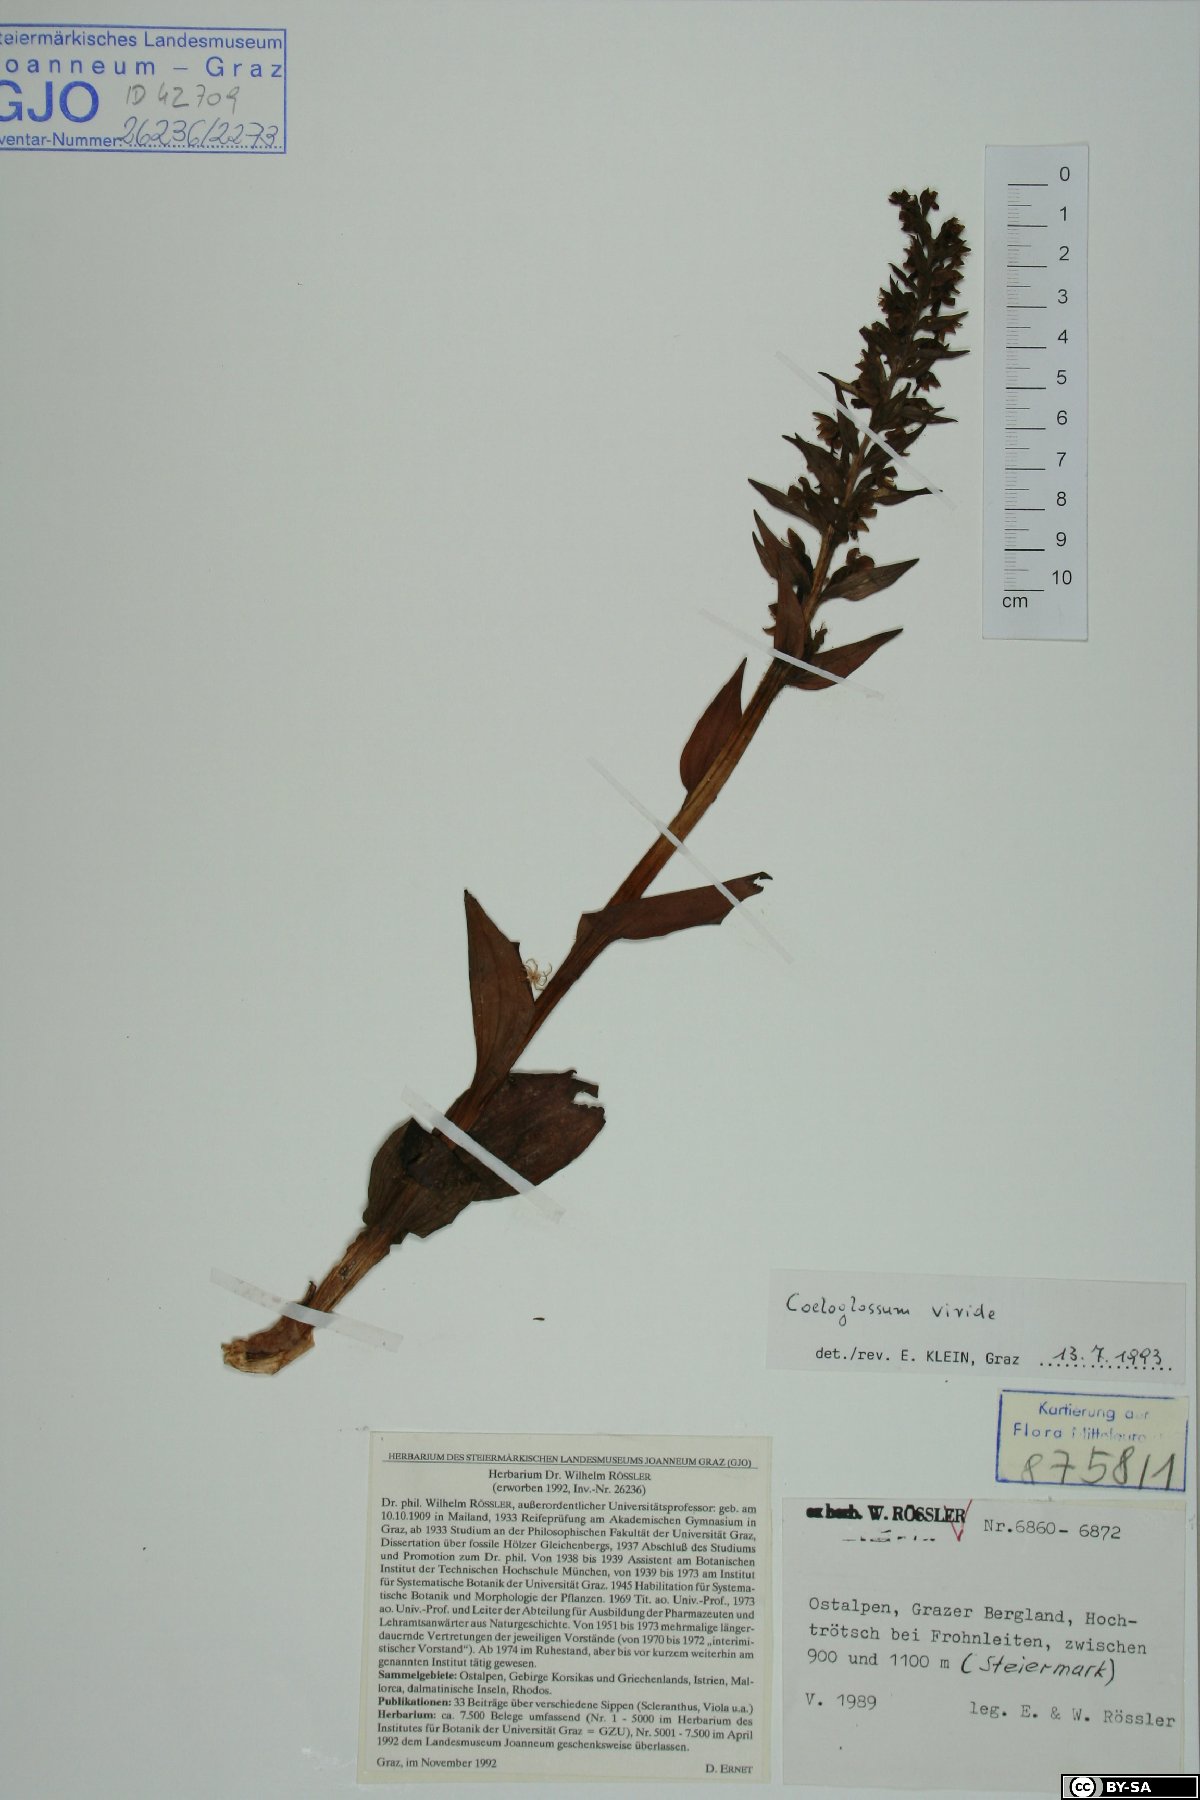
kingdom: Plantae
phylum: Tracheophyta
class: Liliopsida
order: Asparagales
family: Orchidaceae
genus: Dactylorhiza
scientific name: Dactylorhiza viridis
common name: Longbract frog orchid
